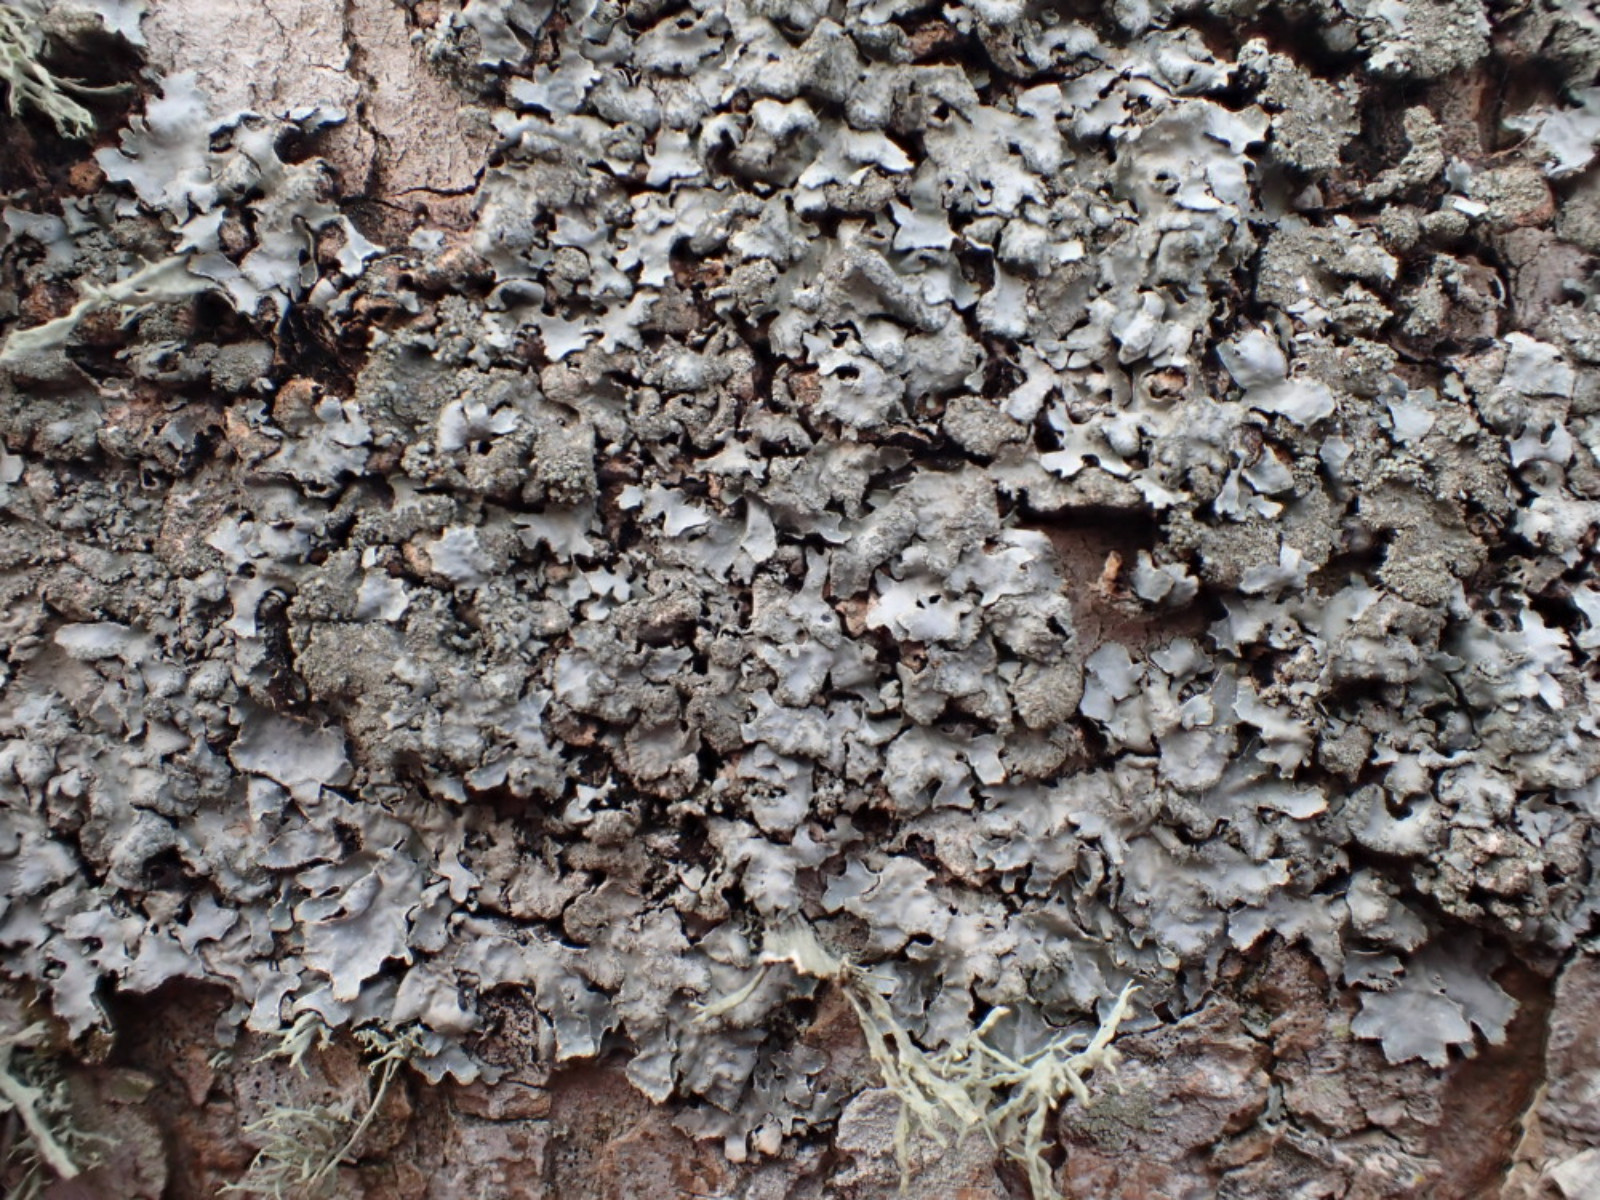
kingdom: Fungi
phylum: Ascomycota
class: Lecanoromycetes
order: Lecanorales
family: Parmeliaceae
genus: Parmelia
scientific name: Parmelia ernstiae
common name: rimstift-skållav
